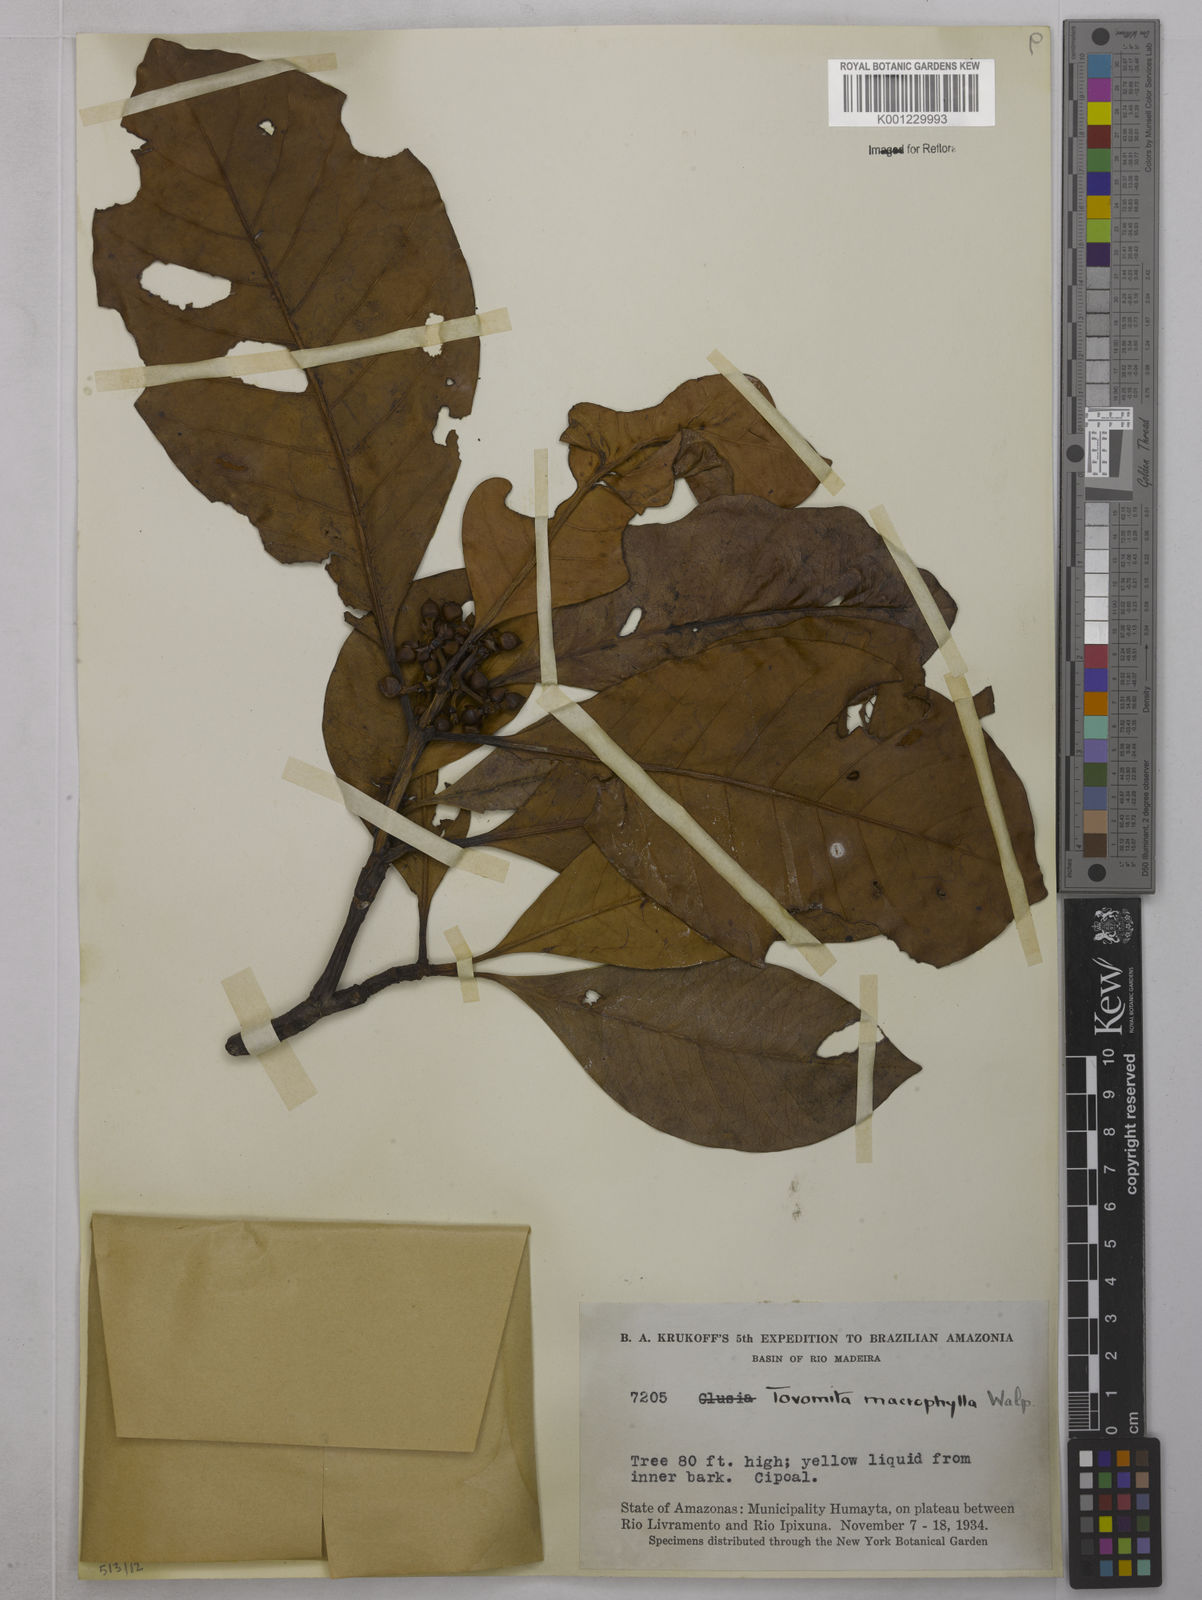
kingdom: Plantae
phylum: Tracheophyta
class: Magnoliopsida
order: Malpighiales
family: Clusiaceae
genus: Tovomita
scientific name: Tovomita macrophylla
